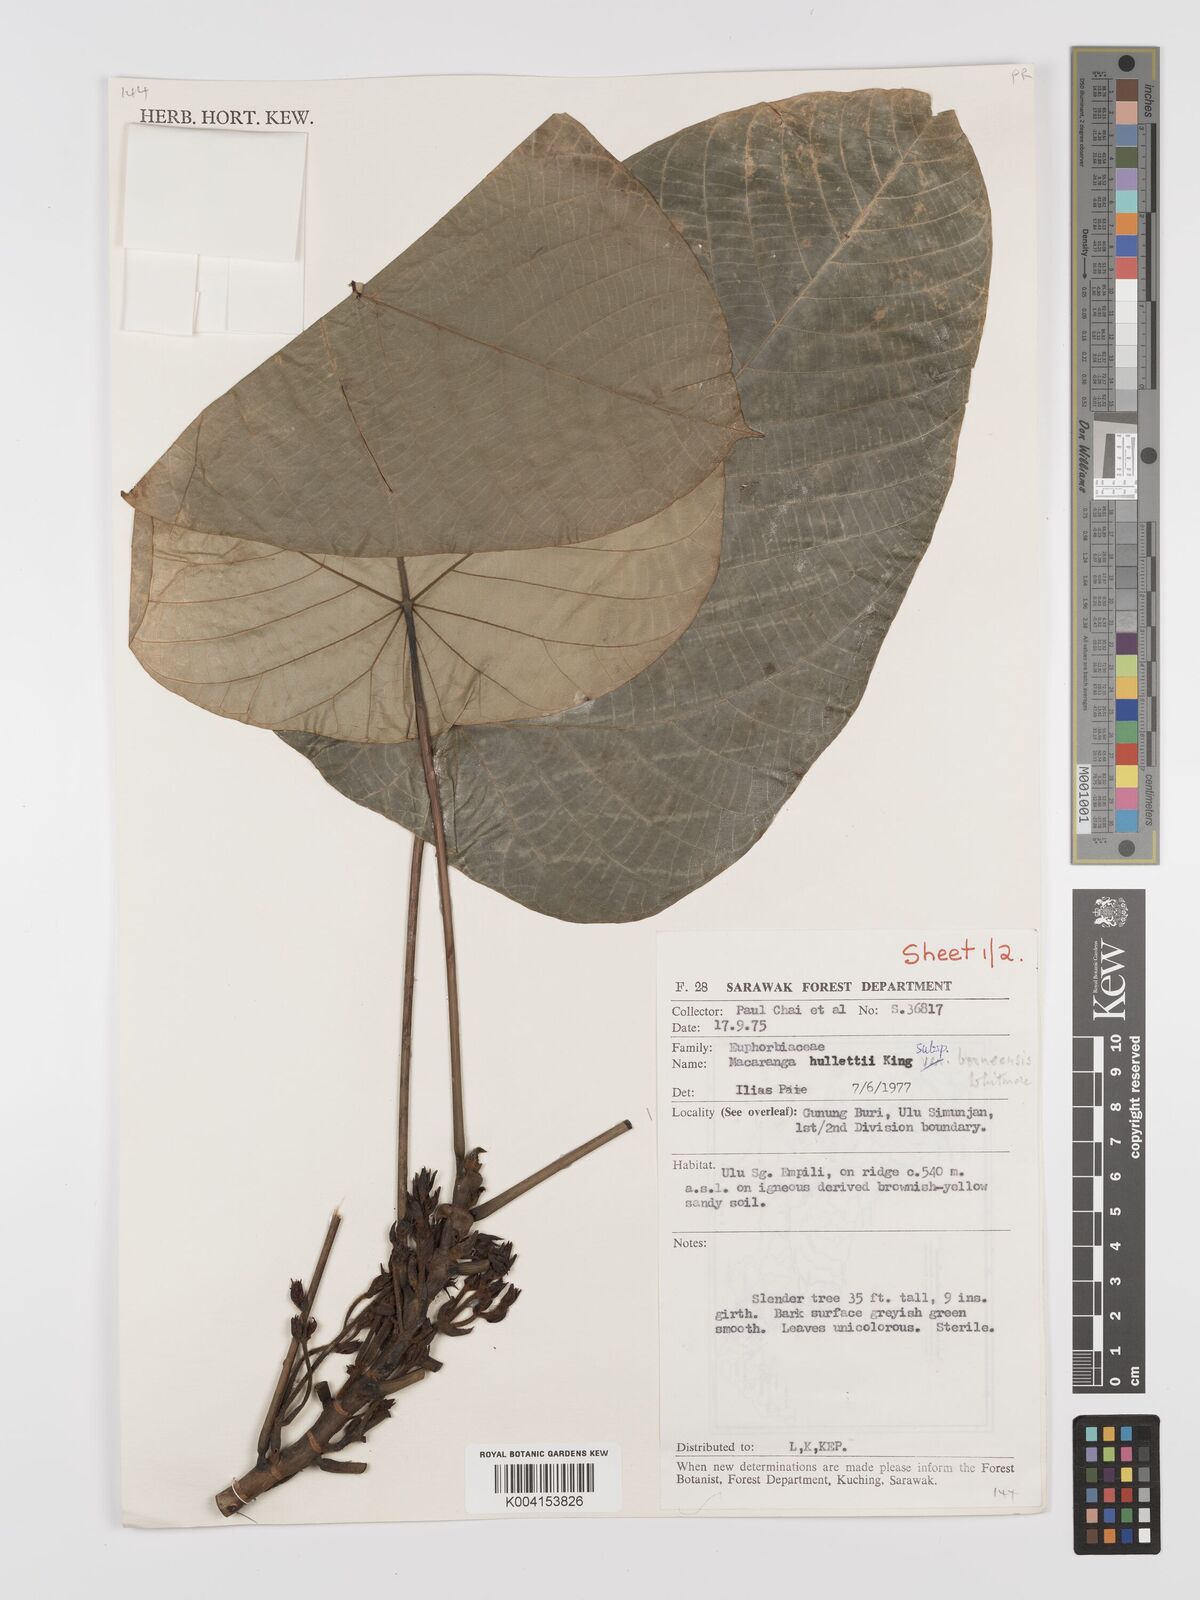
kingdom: Plantae
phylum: Tracheophyta
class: Magnoliopsida
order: Malpighiales
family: Euphorbiaceae
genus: Macaranga
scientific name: Macaranga hullettii
